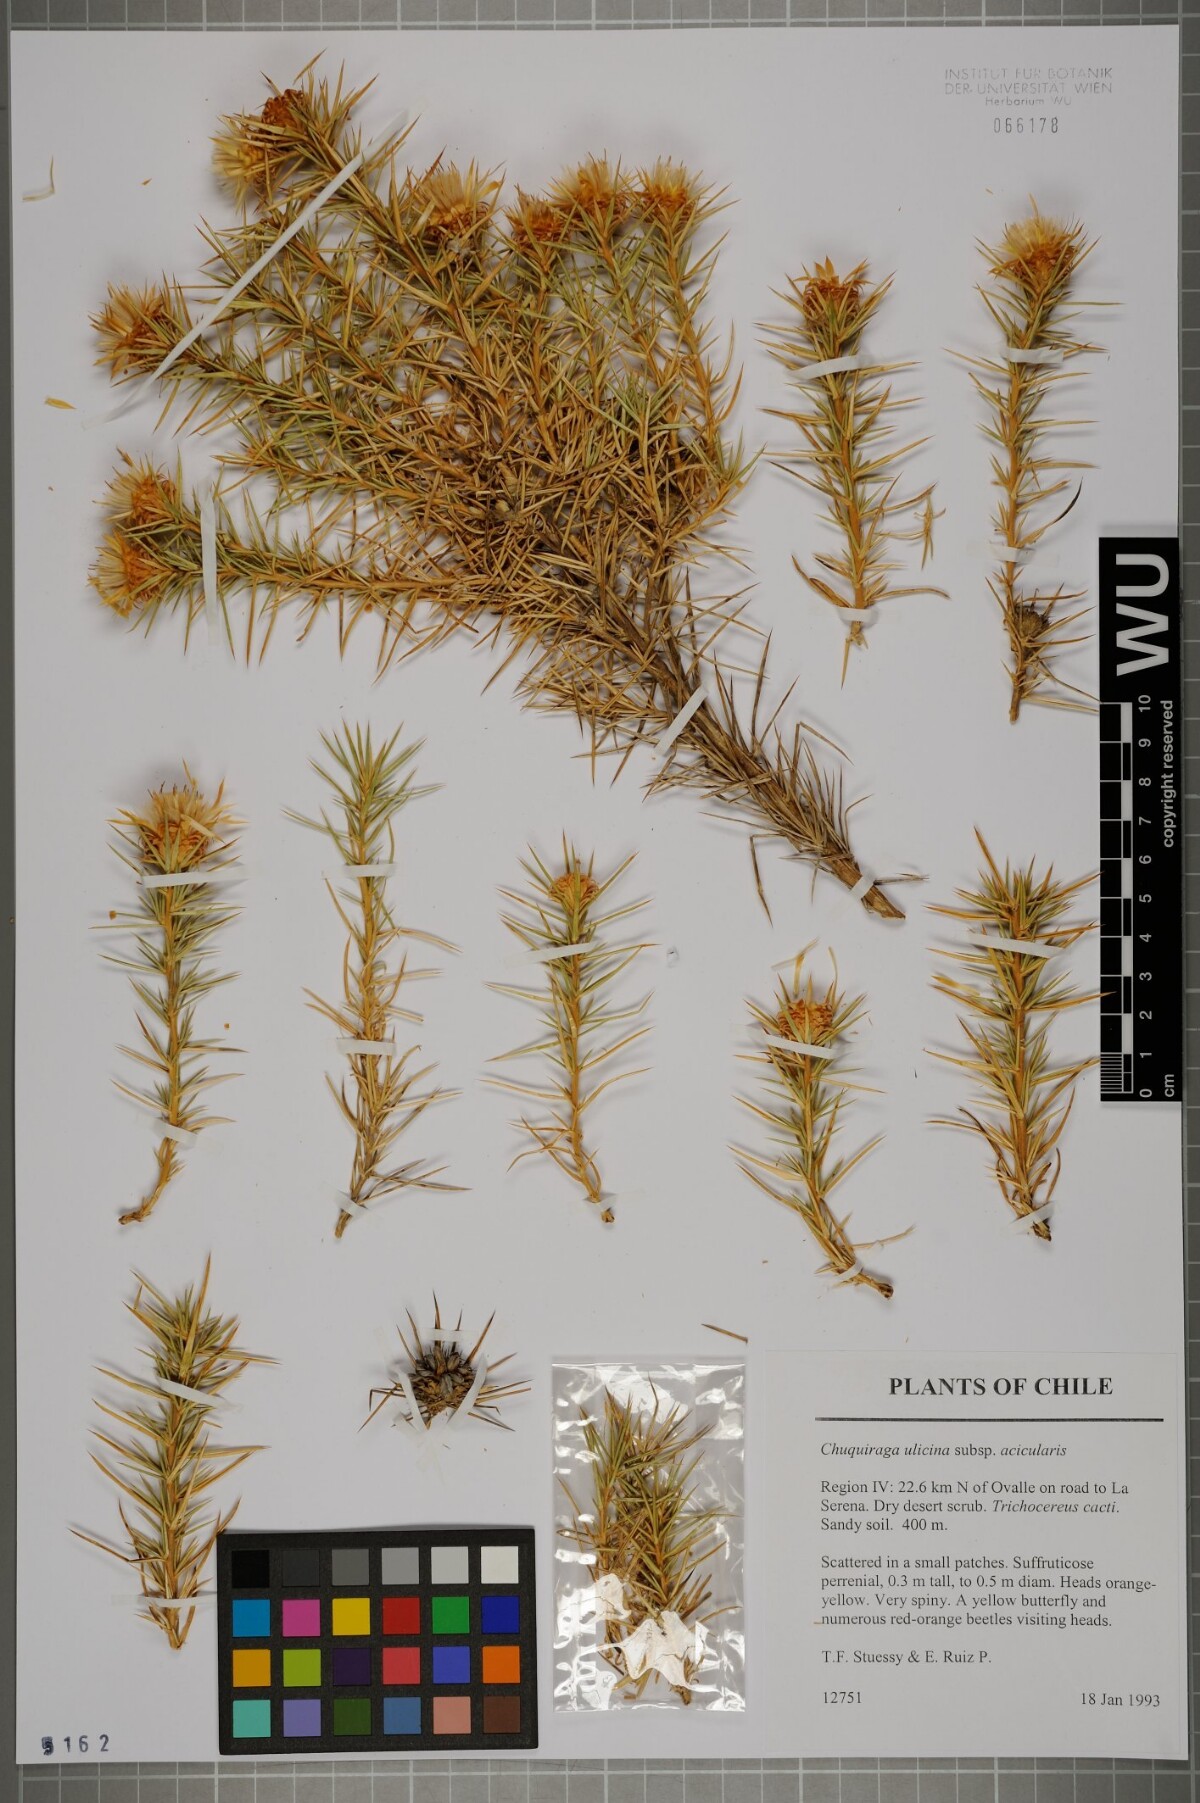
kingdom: Plantae
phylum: Tracheophyta
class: Magnoliopsida
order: Asterales
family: Asteraceae
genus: Chuquiraga
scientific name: Chuquiraga ulicina
